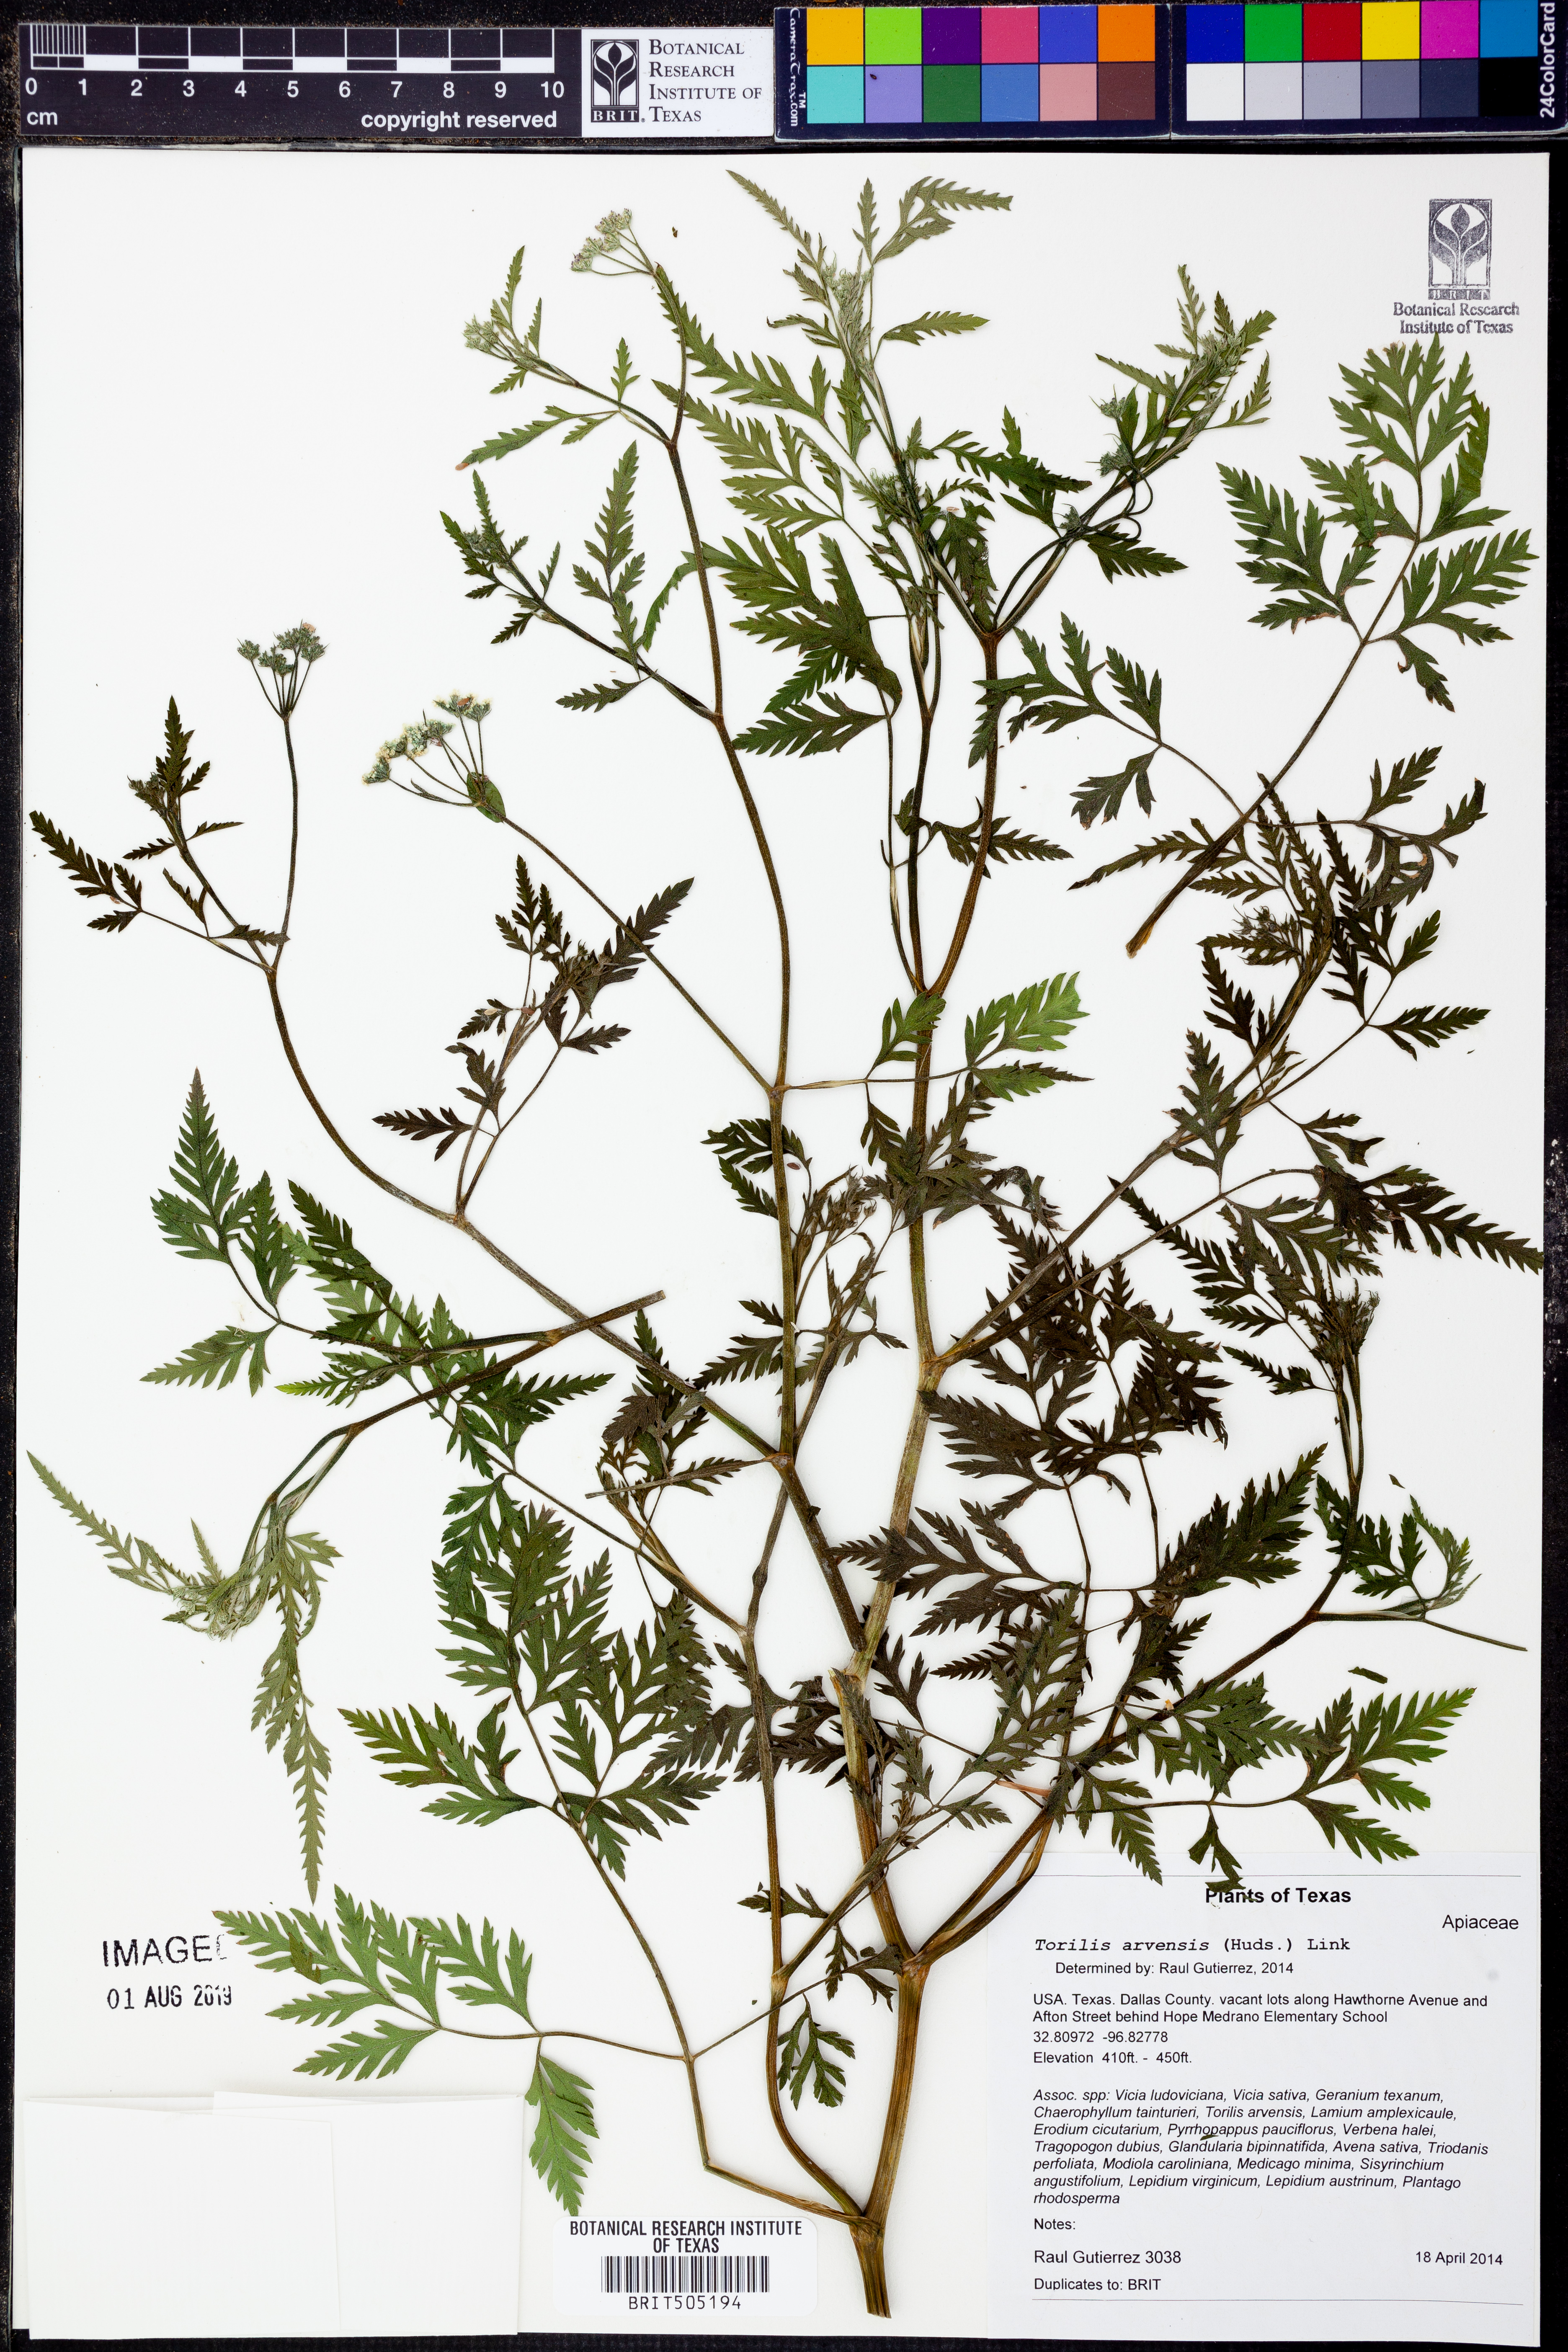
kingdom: Plantae
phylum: Tracheophyta
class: Magnoliopsida
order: Apiales
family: Apiaceae
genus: Torilis
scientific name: Torilis arvensis
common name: Spreading hedge-parsley
